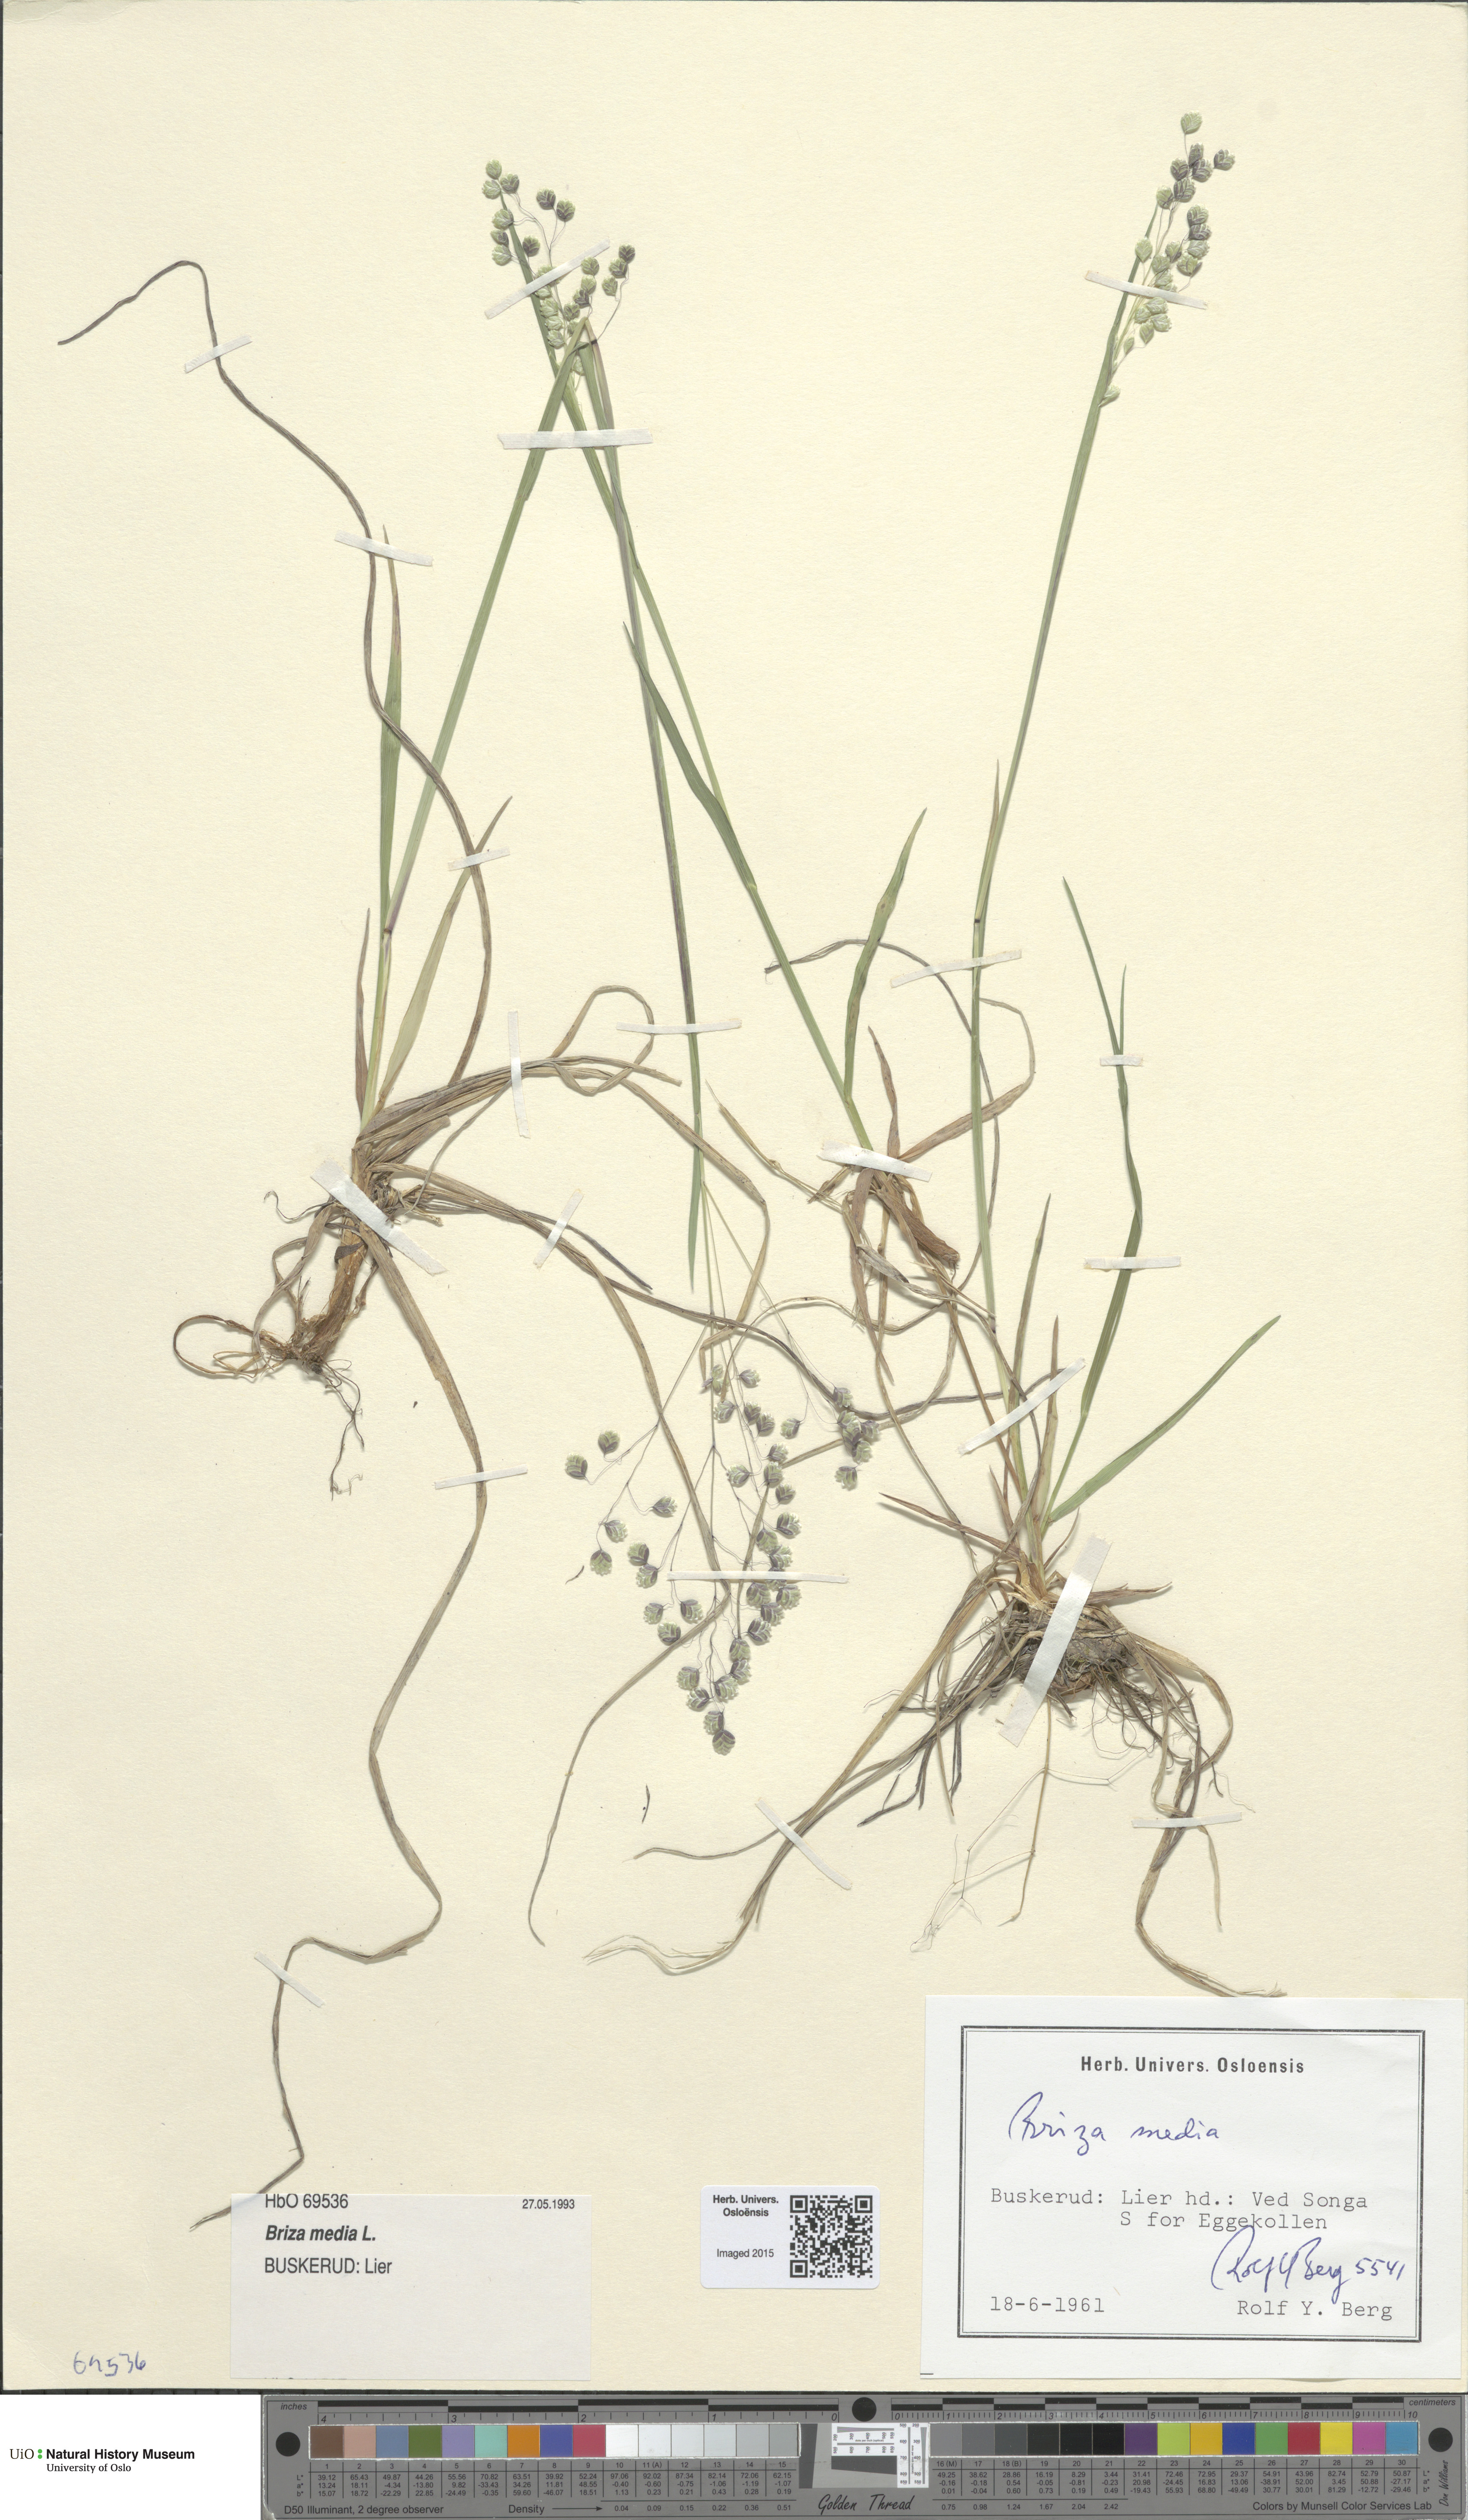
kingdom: Plantae
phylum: Tracheophyta
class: Liliopsida
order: Poales
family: Poaceae
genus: Briza
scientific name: Briza media
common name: Quaking grass
